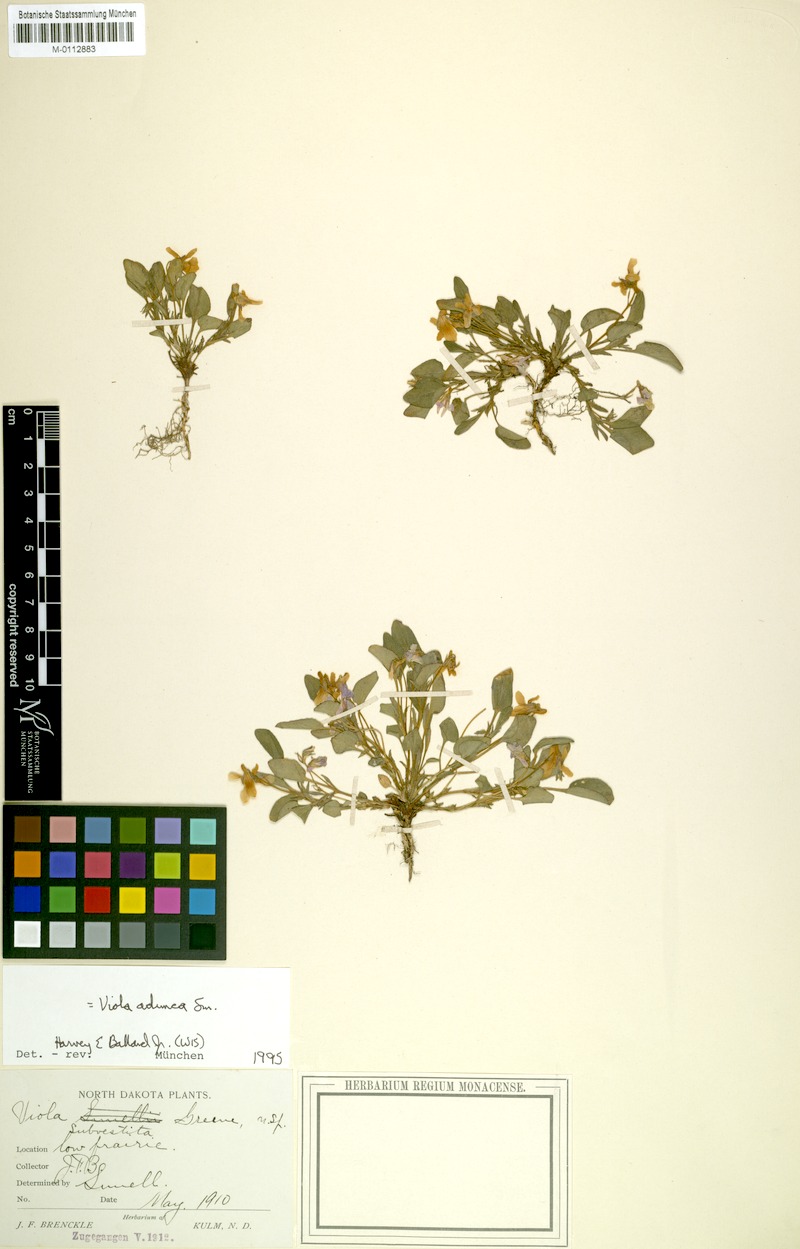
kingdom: Plantae
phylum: Tracheophyta
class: Magnoliopsida
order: Malpighiales
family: Violaceae
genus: Viola
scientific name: Viola adunca
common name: Sand violet
